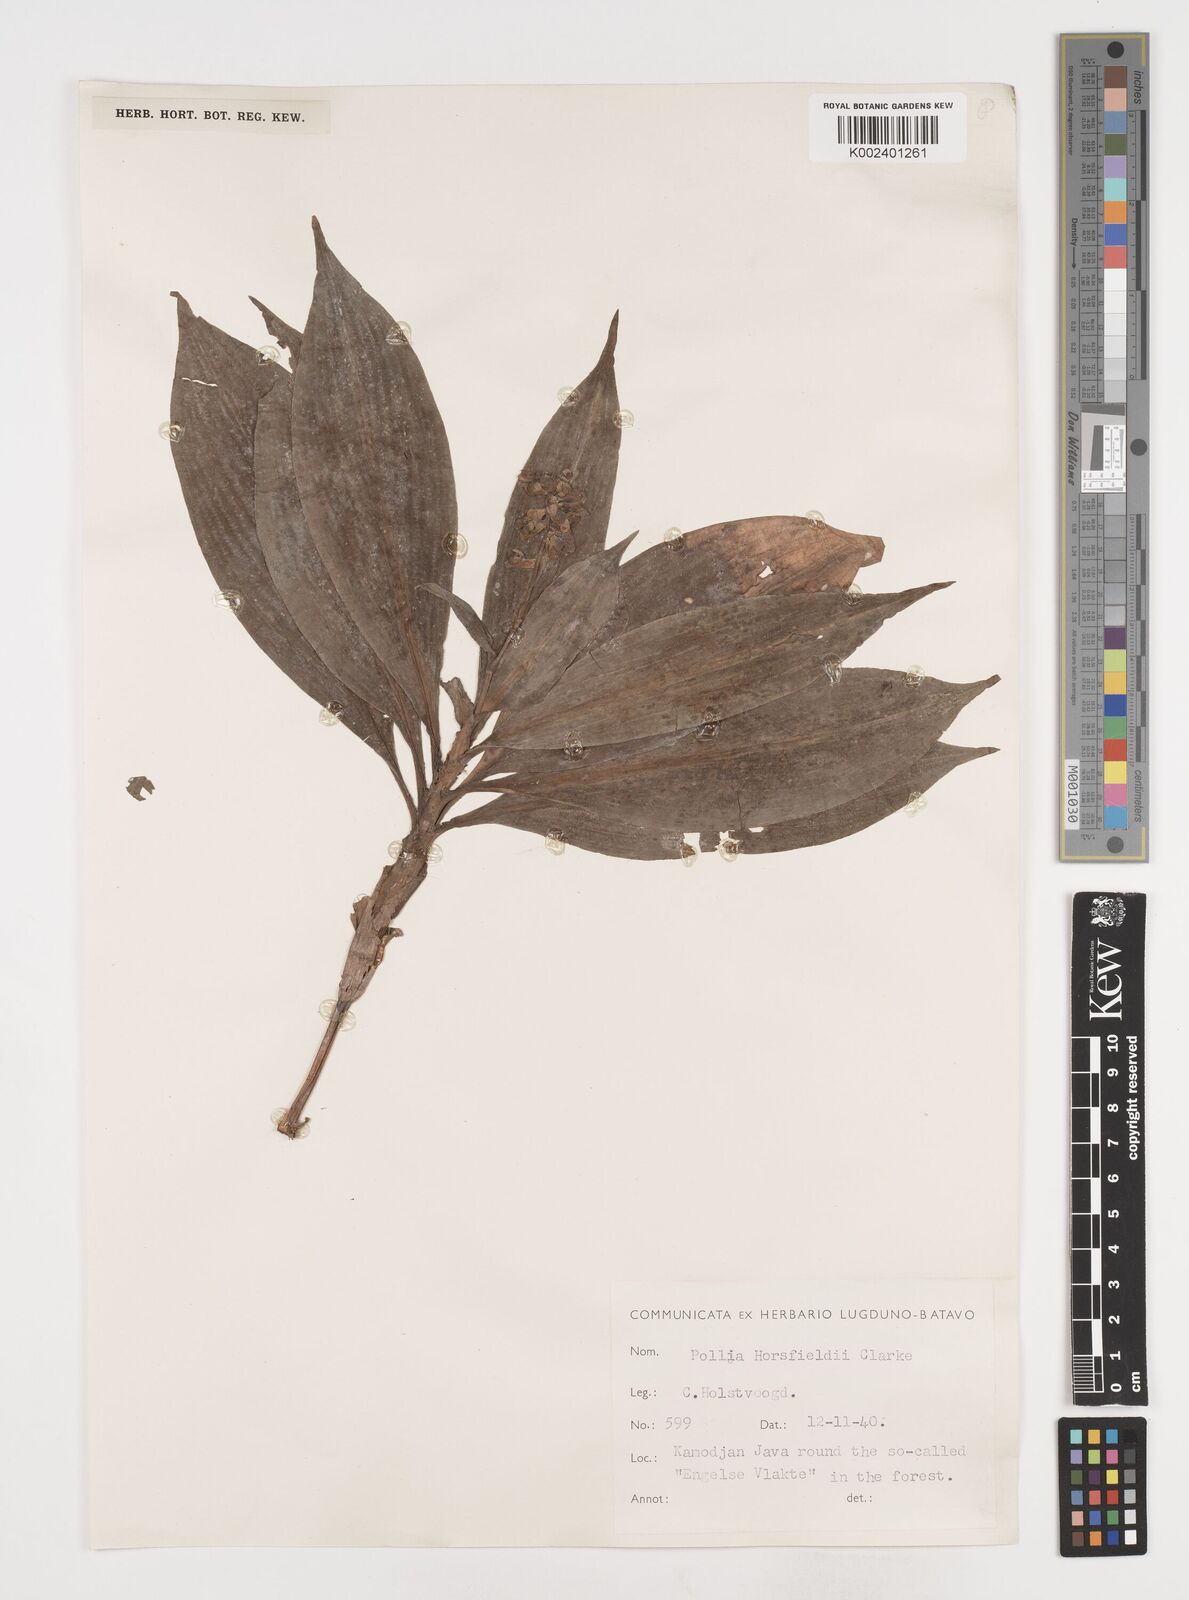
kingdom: Plantae
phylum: Tracheophyta
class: Liliopsida
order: Commelinales
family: Commelinaceae
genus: Pollia
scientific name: Pollia horsfieldii
